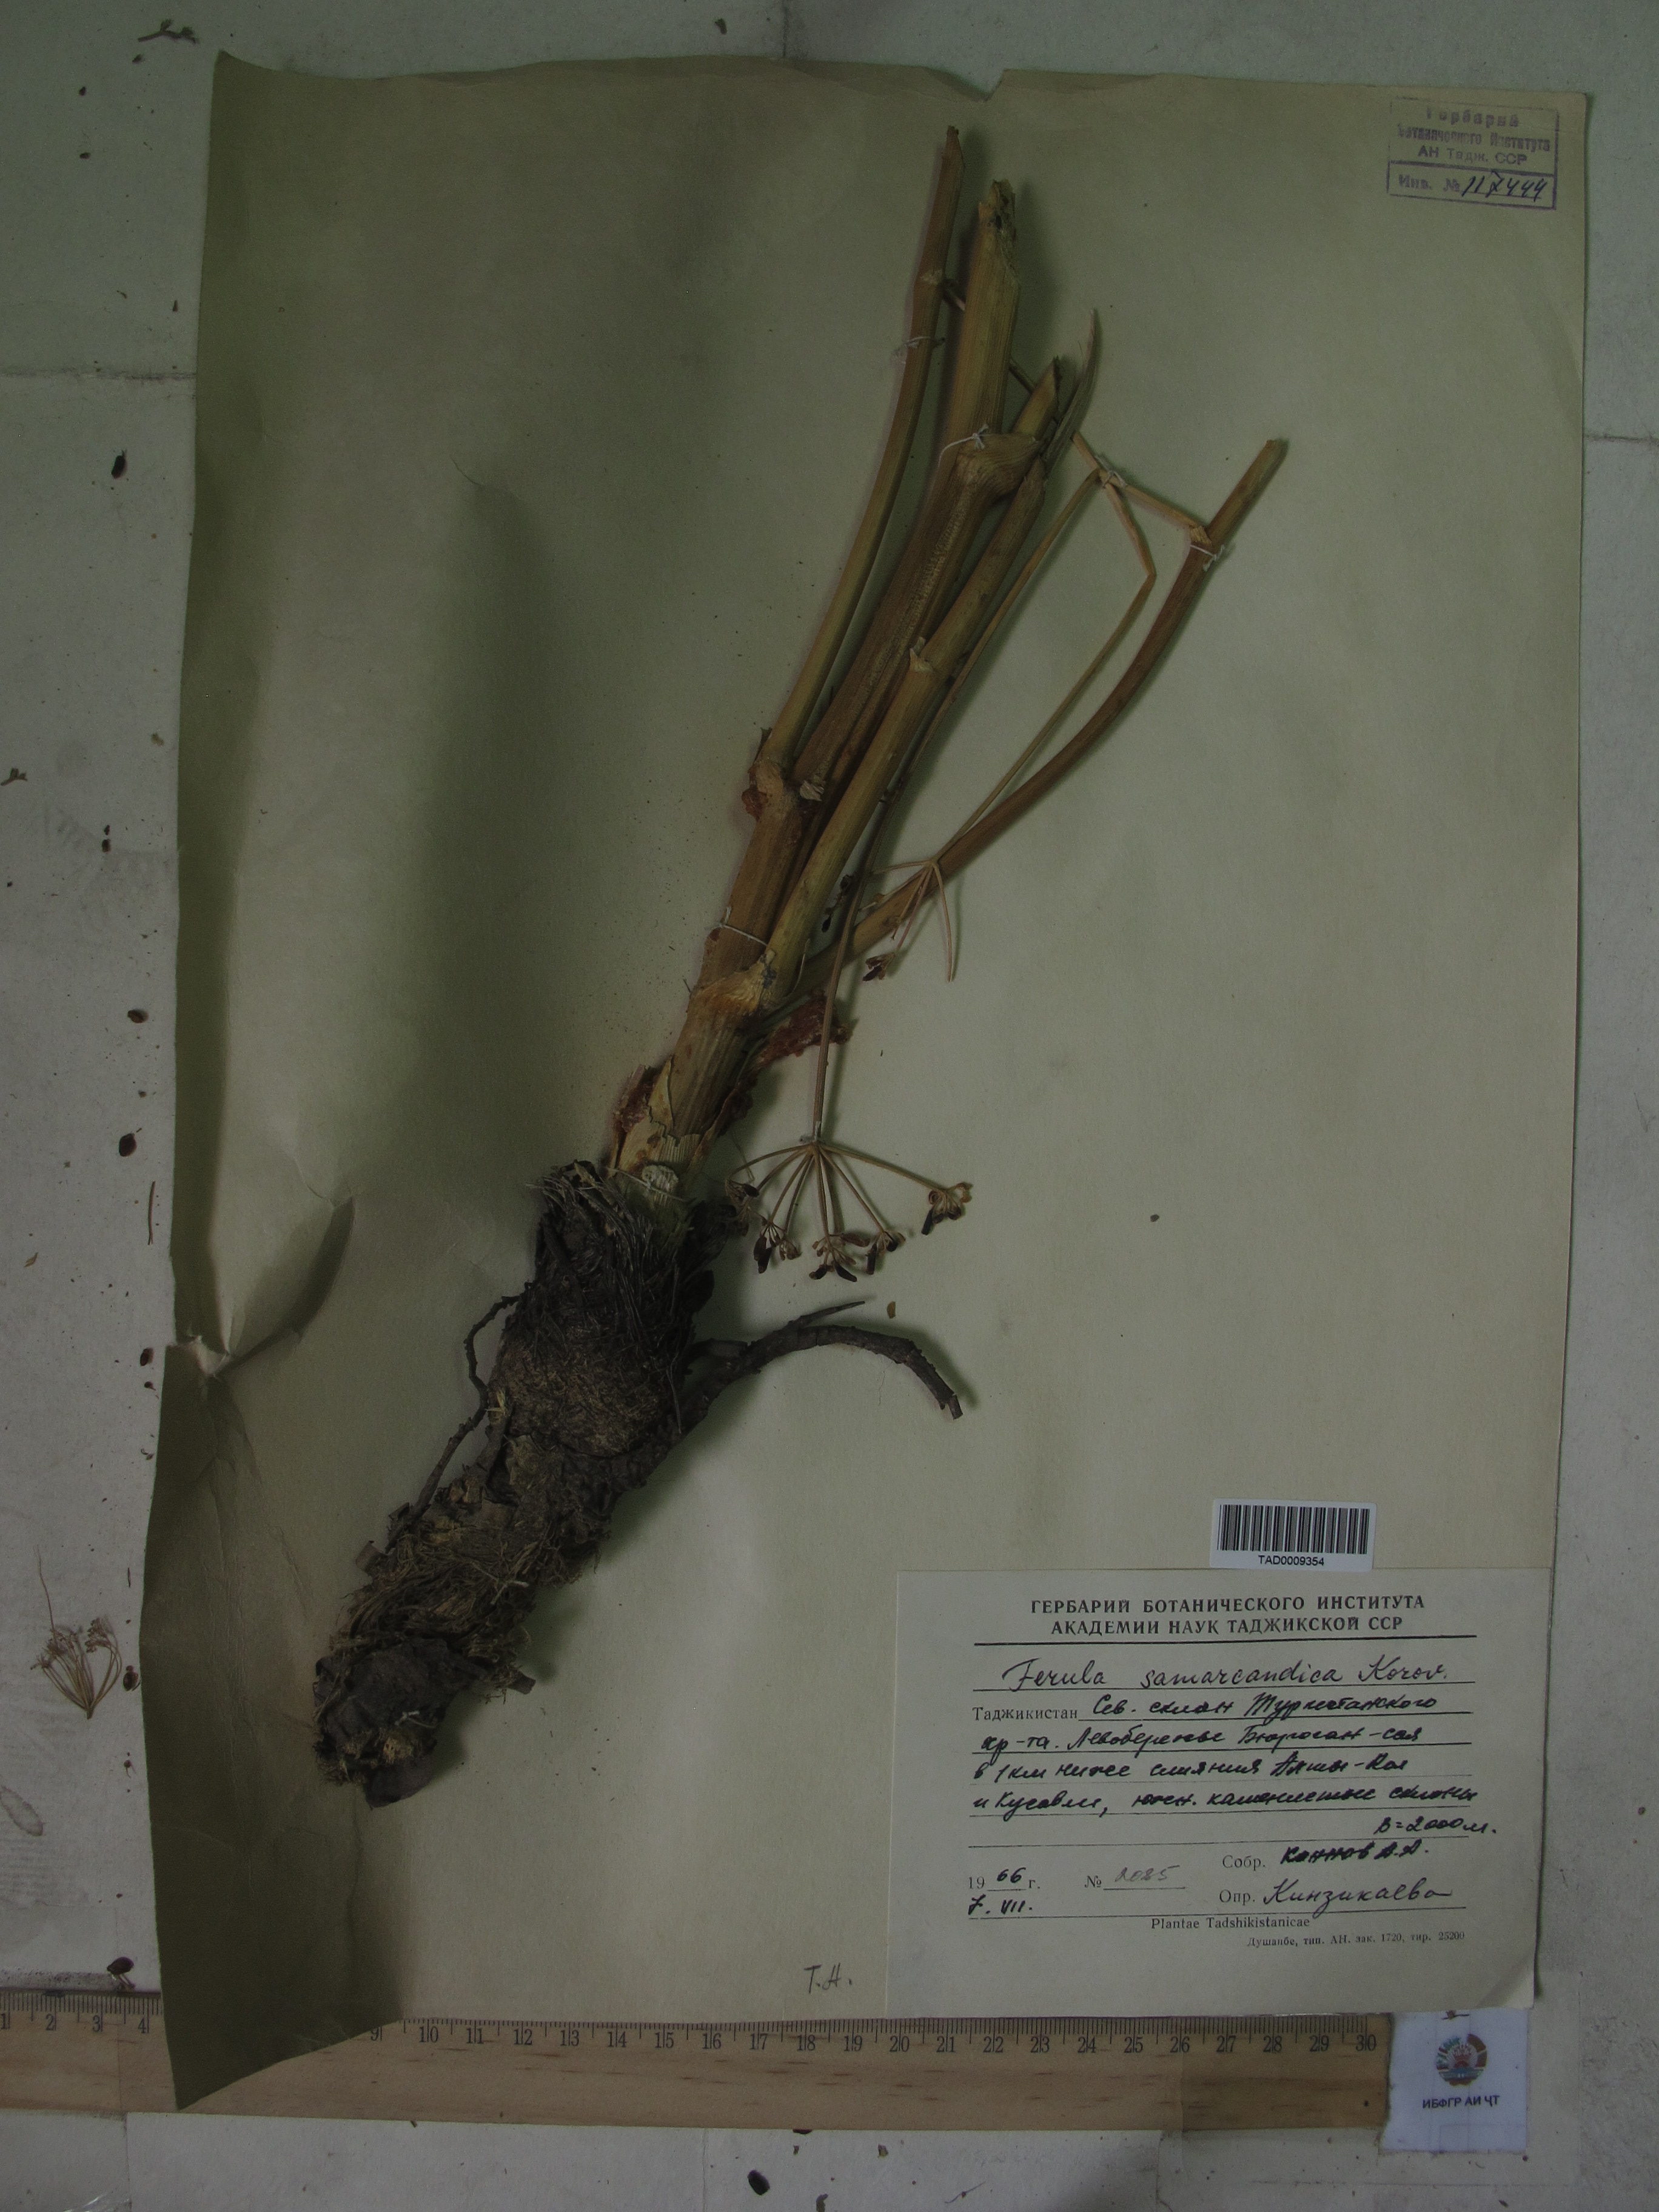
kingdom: Plantae
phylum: Tracheophyta
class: Magnoliopsida
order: Apiales
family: Apiaceae
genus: Ferula
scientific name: Ferula samarkandica
